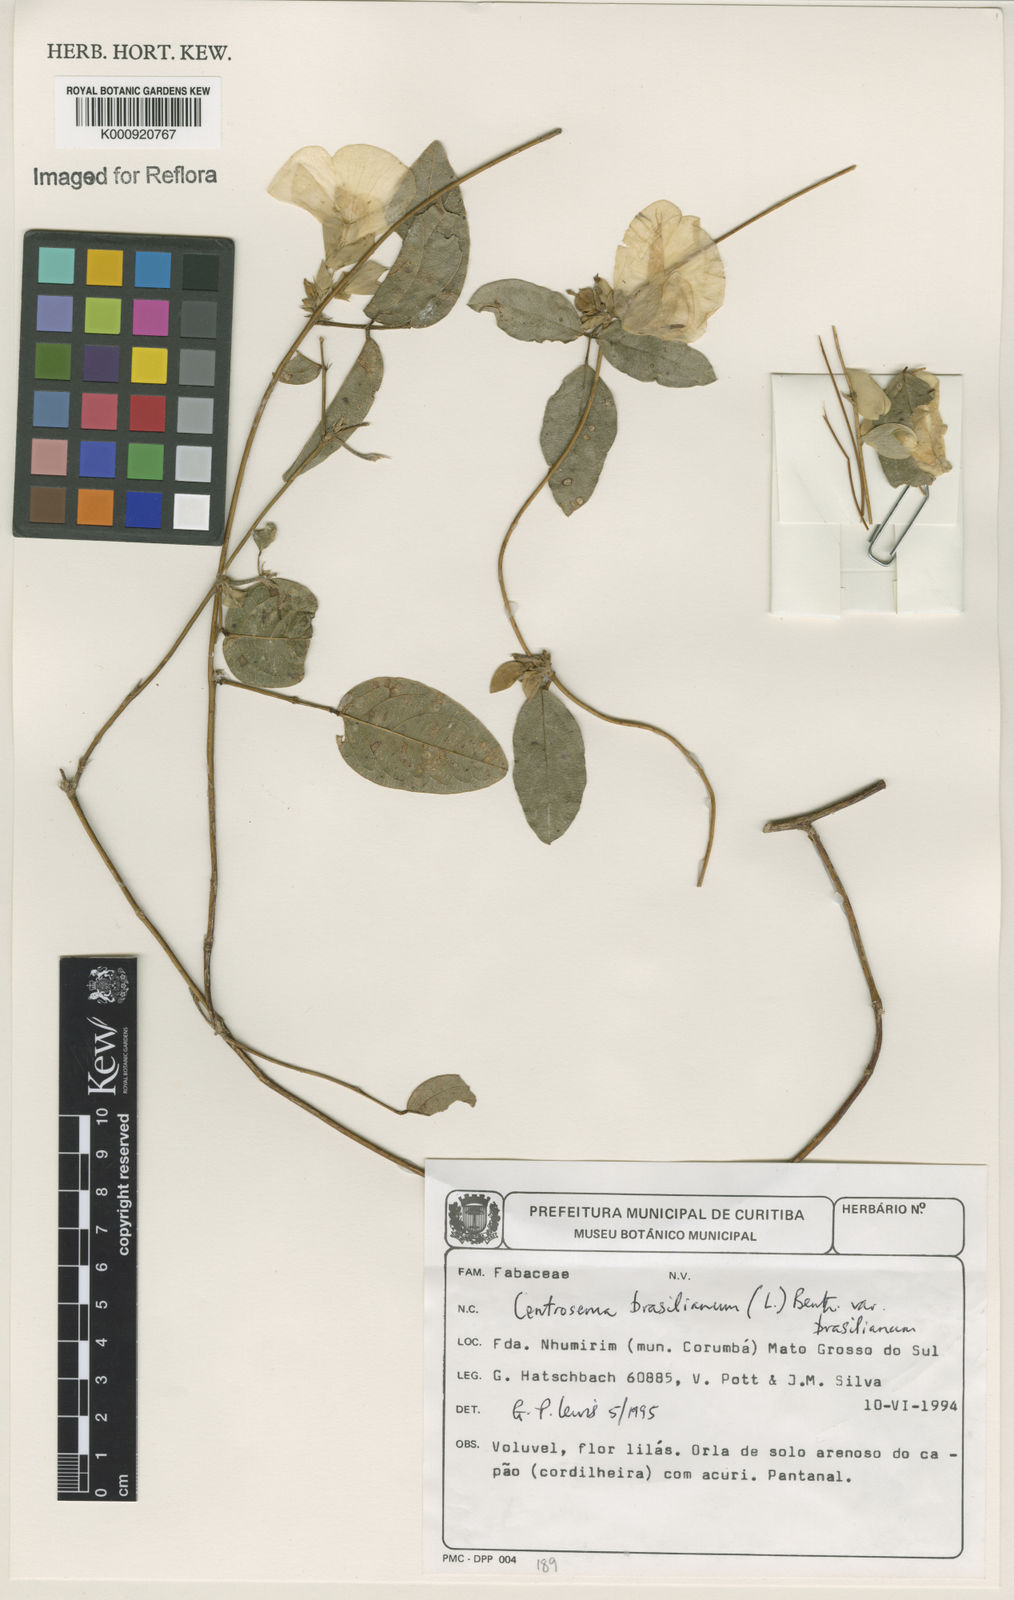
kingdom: Plantae
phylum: Tracheophyta
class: Magnoliopsida
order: Fabales
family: Fabaceae
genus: Centrosema
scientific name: Centrosema brasilianum
